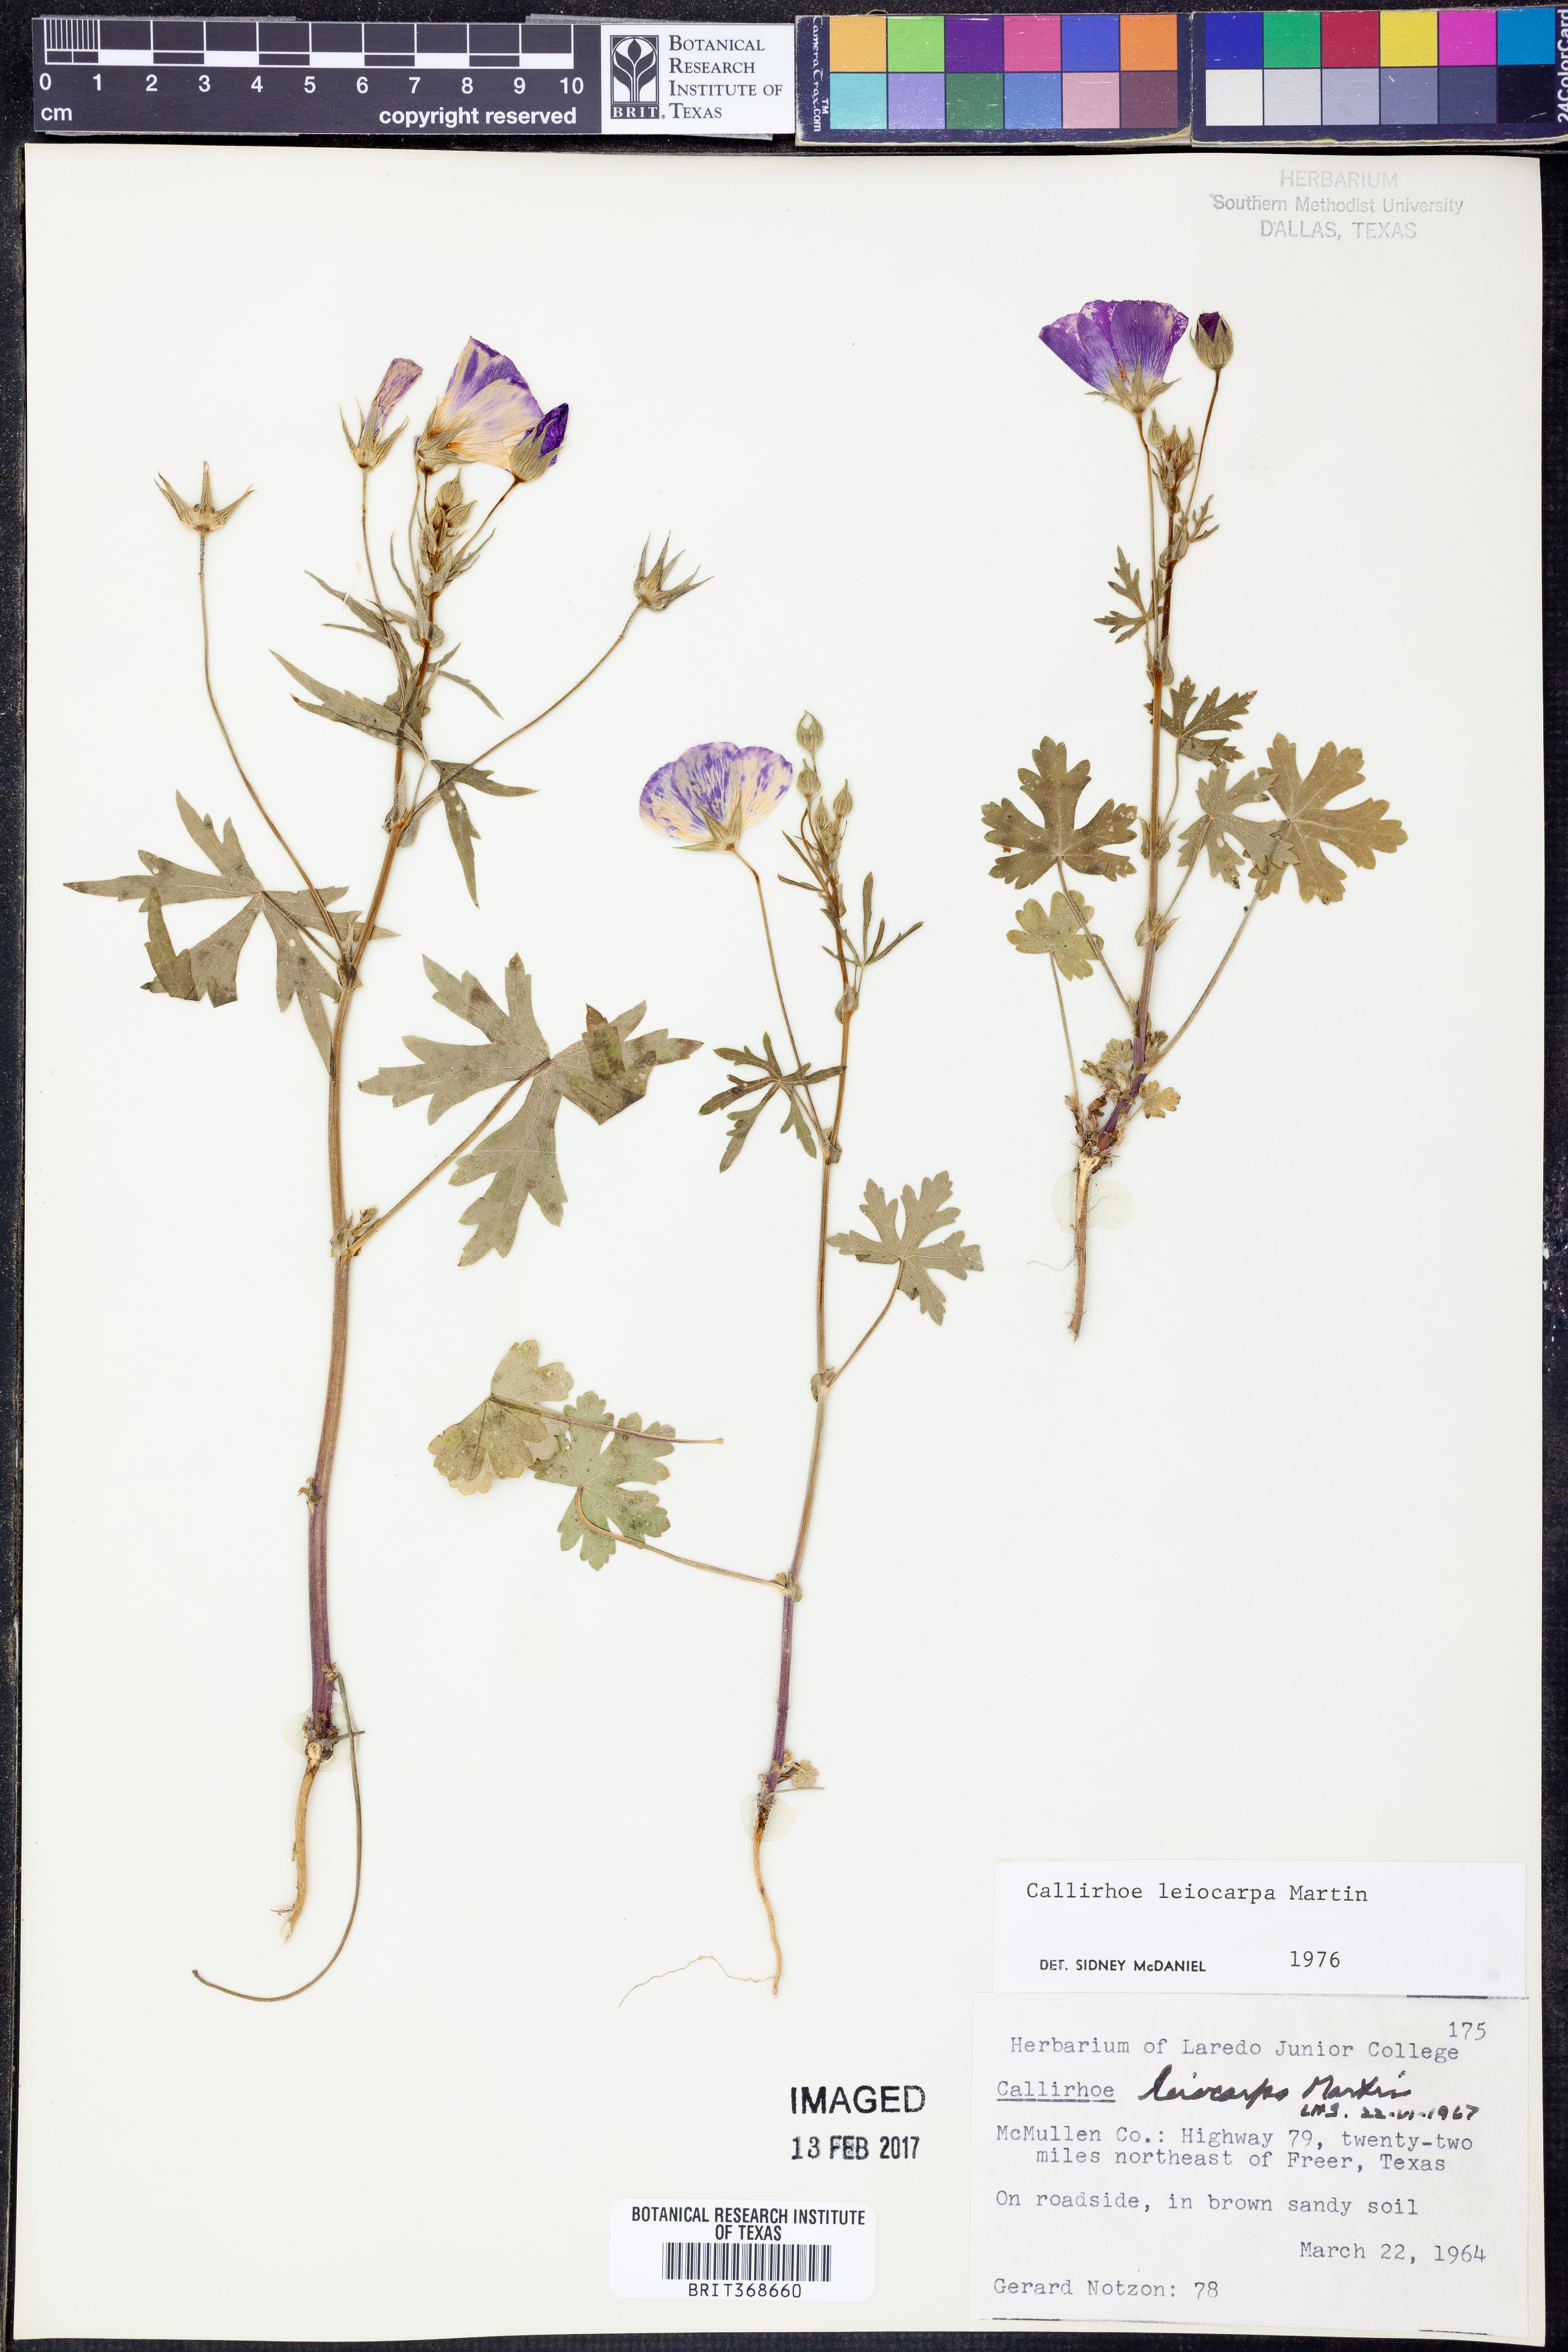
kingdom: Plantae
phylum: Tracheophyta
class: Magnoliopsida
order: Malvales
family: Malvaceae
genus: Callirhoe
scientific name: Callirhoe leiocarpa
